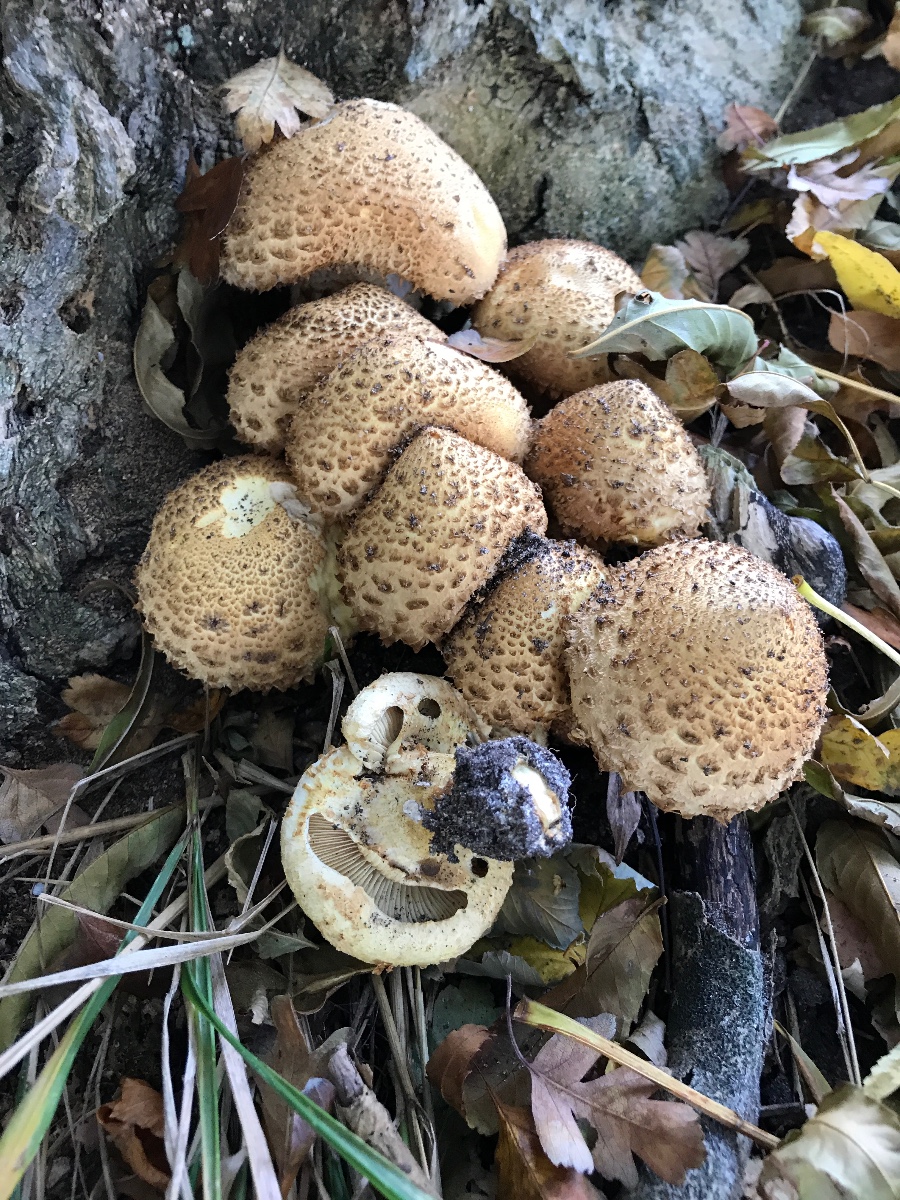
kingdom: Fungi
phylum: Basidiomycota
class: Agaricomycetes
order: Agaricales
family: Strophariaceae
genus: Pholiota
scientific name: Pholiota squarrosa
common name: krumskællet skælhat
